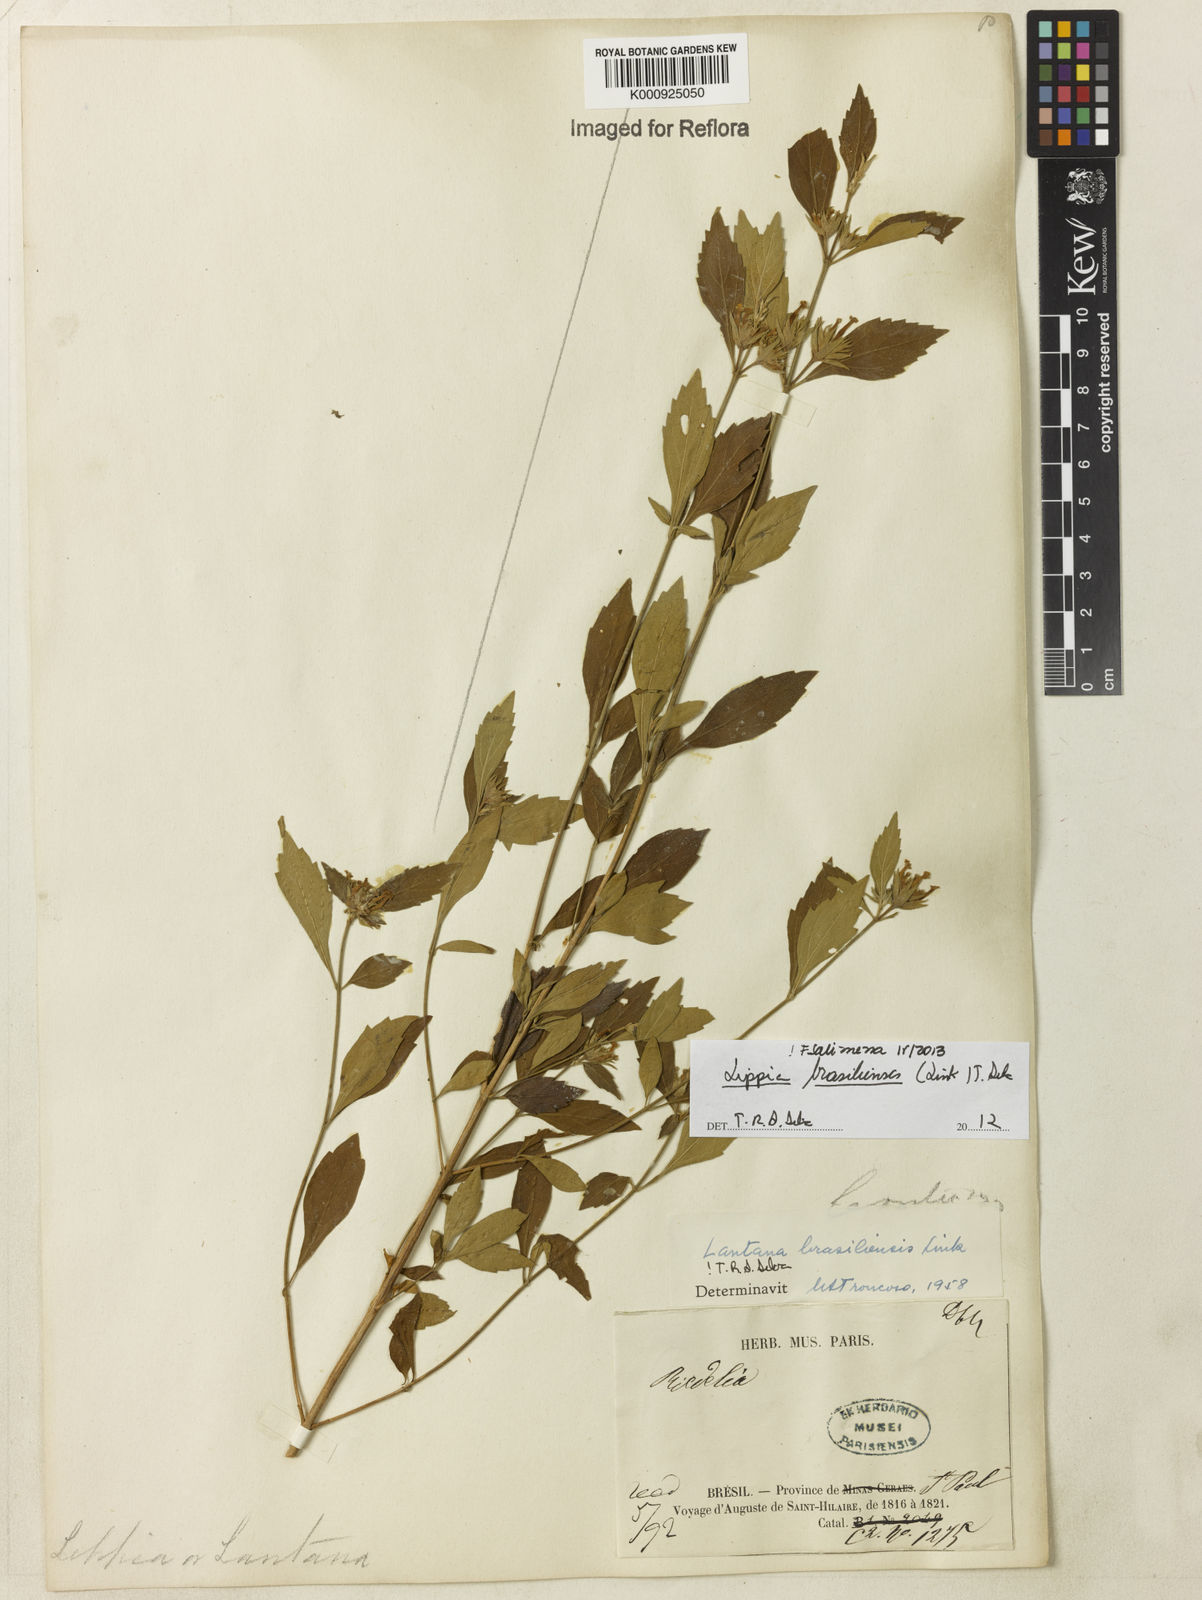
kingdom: Plantae
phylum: Tracheophyta
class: Magnoliopsida
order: Lamiales
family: Verbenaceae
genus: Lippia
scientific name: Lippia brasiliensis
